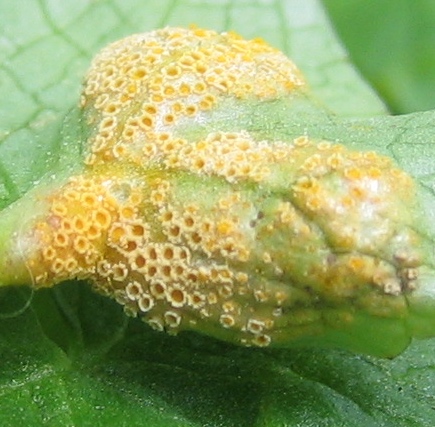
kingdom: Fungi
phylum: Basidiomycota
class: Pucciniomycetes
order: Pucciniales
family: Pucciniaceae
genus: Uromyces
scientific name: Uromyces dactylidis
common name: ranunkel-encellerust
